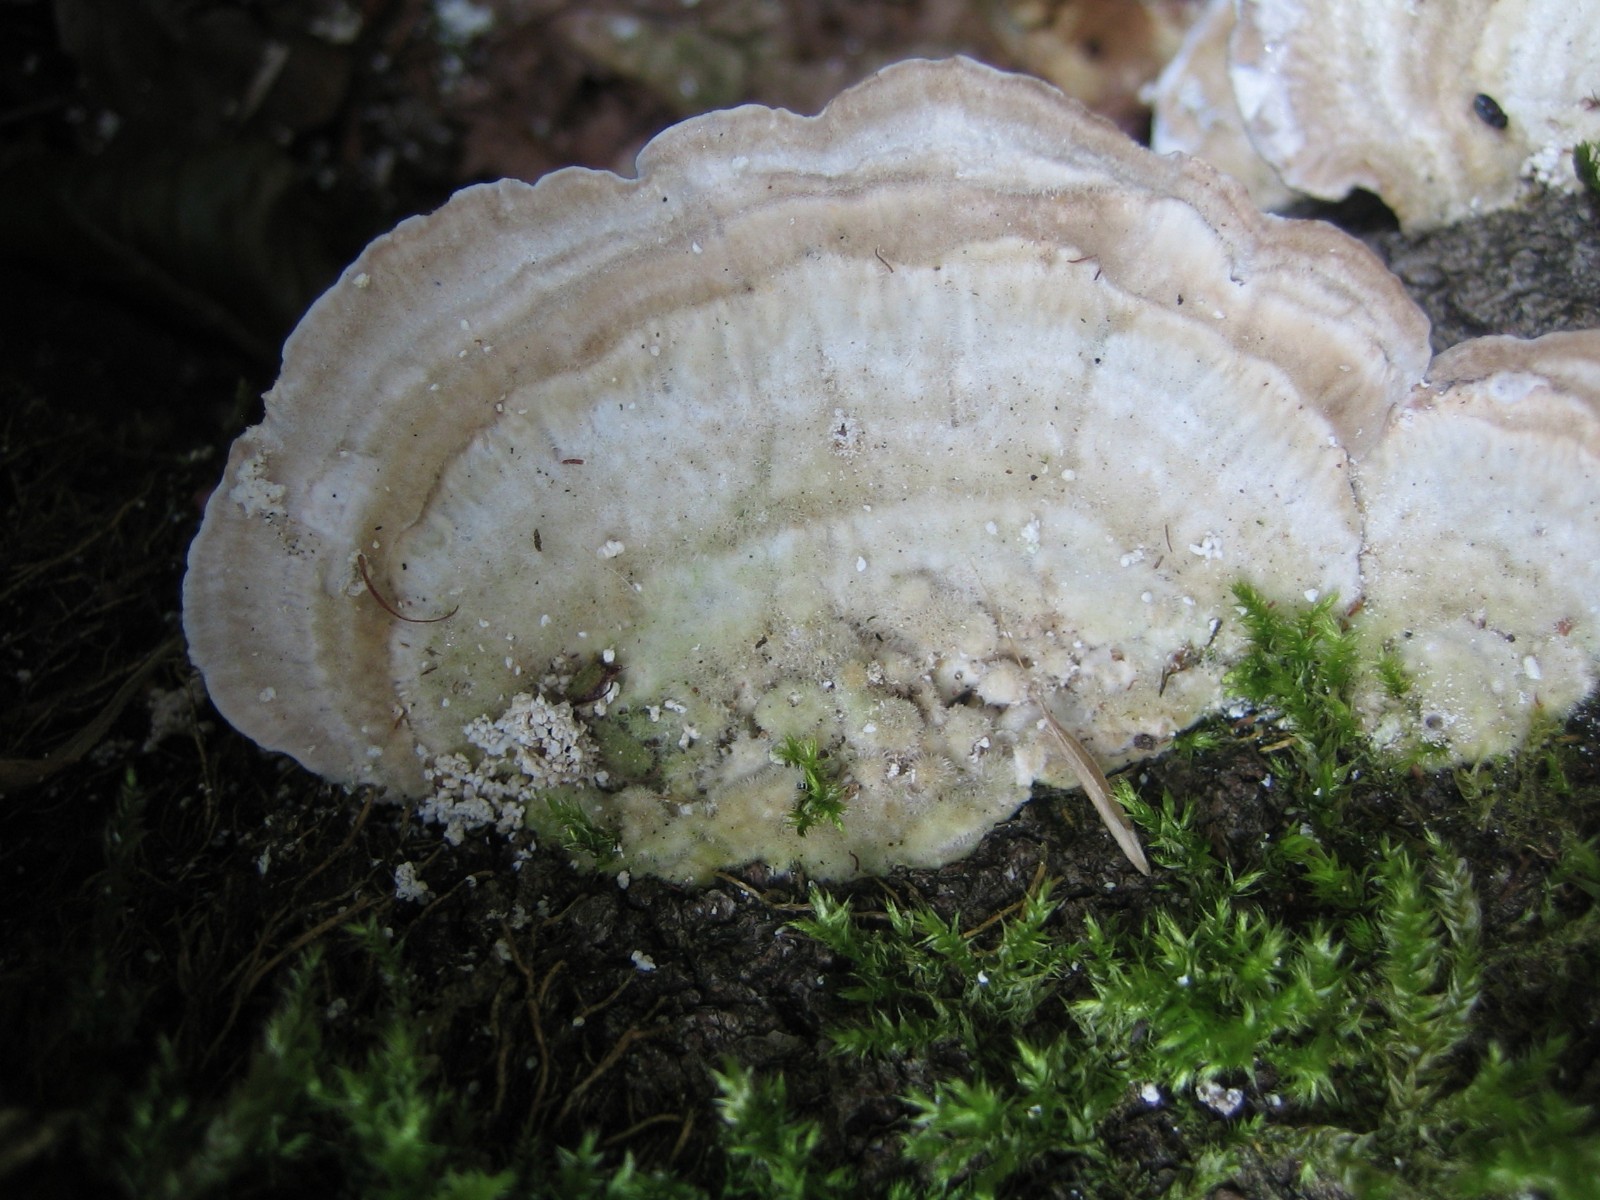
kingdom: Fungi
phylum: Basidiomycota
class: Agaricomycetes
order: Polyporales
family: Polyporaceae
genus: Trametes
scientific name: Trametes hirsuta
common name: håret læderporesvamp
